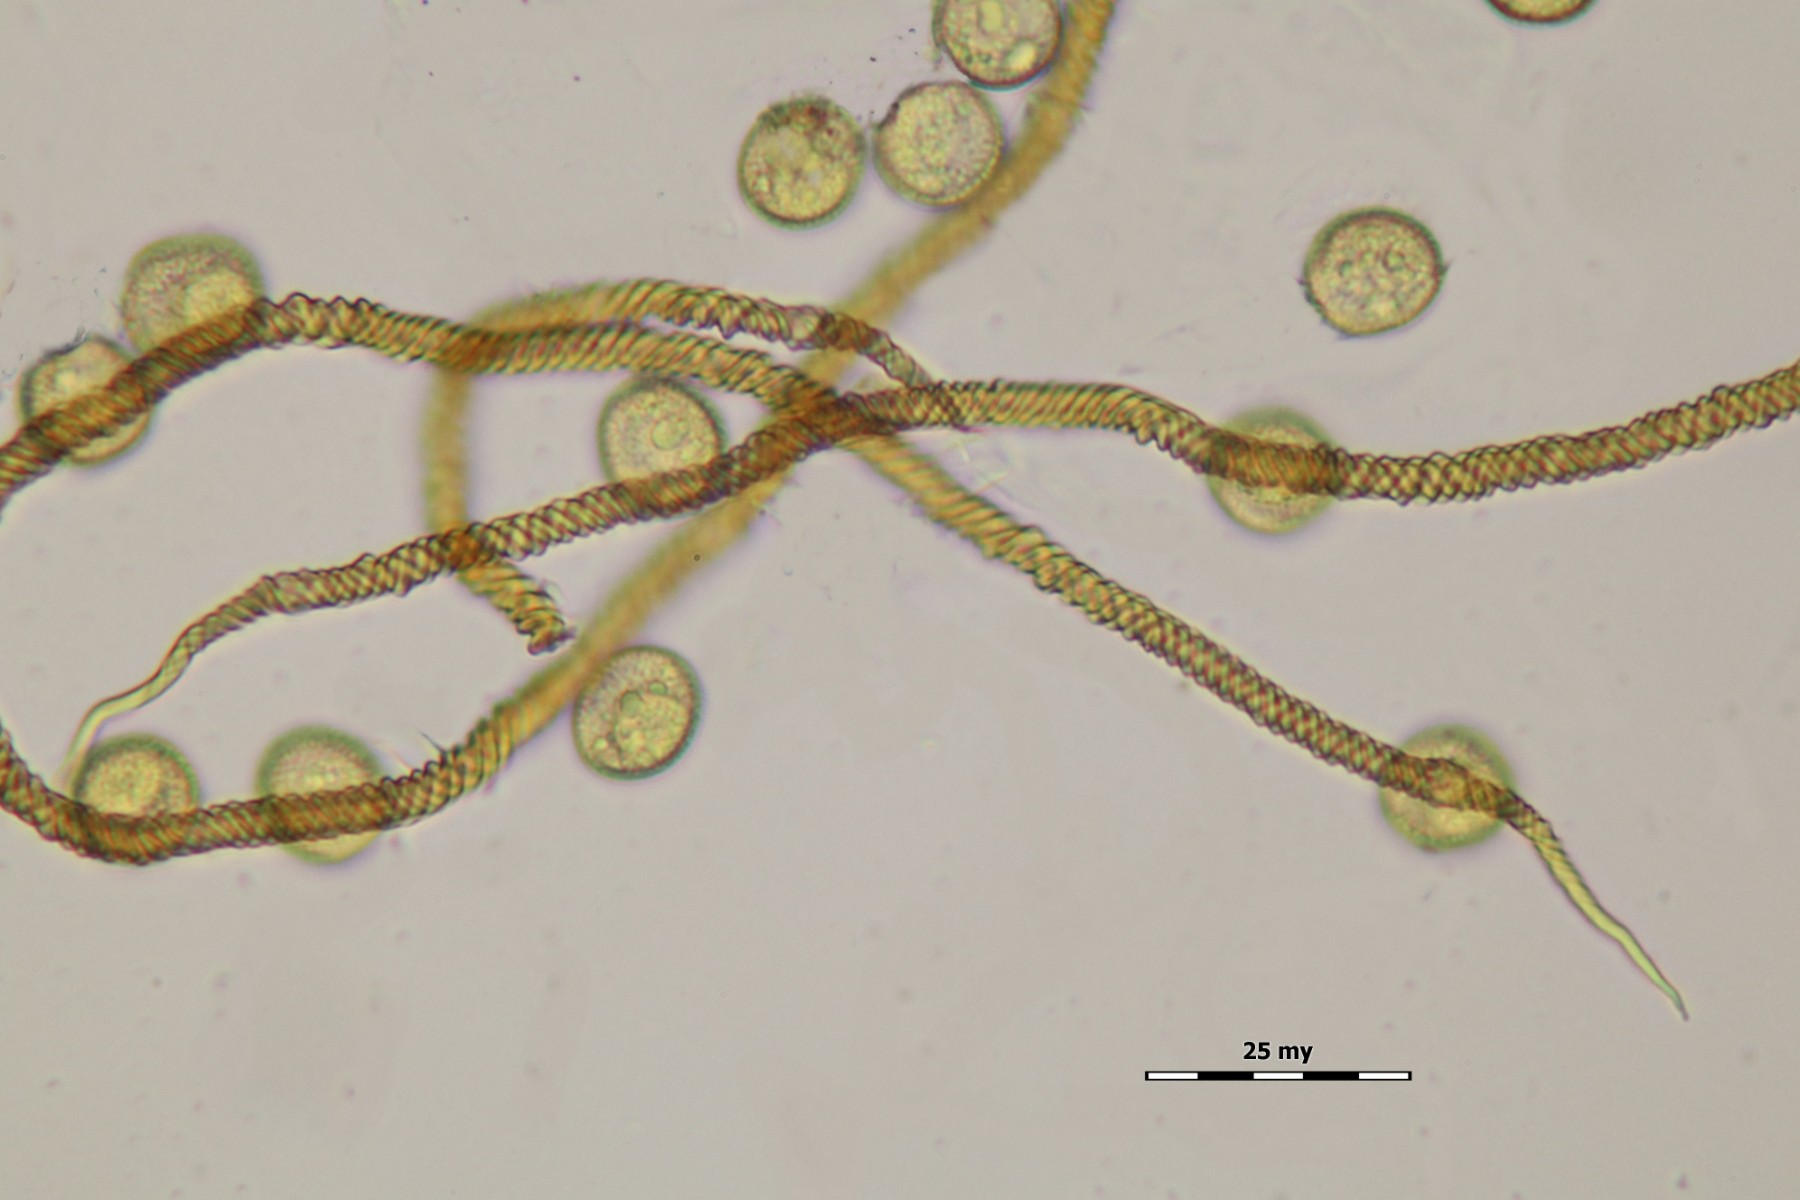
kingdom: Protozoa
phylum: Mycetozoa
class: Myxomycetes
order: Trichiales
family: Trichiaceae
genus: Trichia
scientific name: Trichia ambigua
